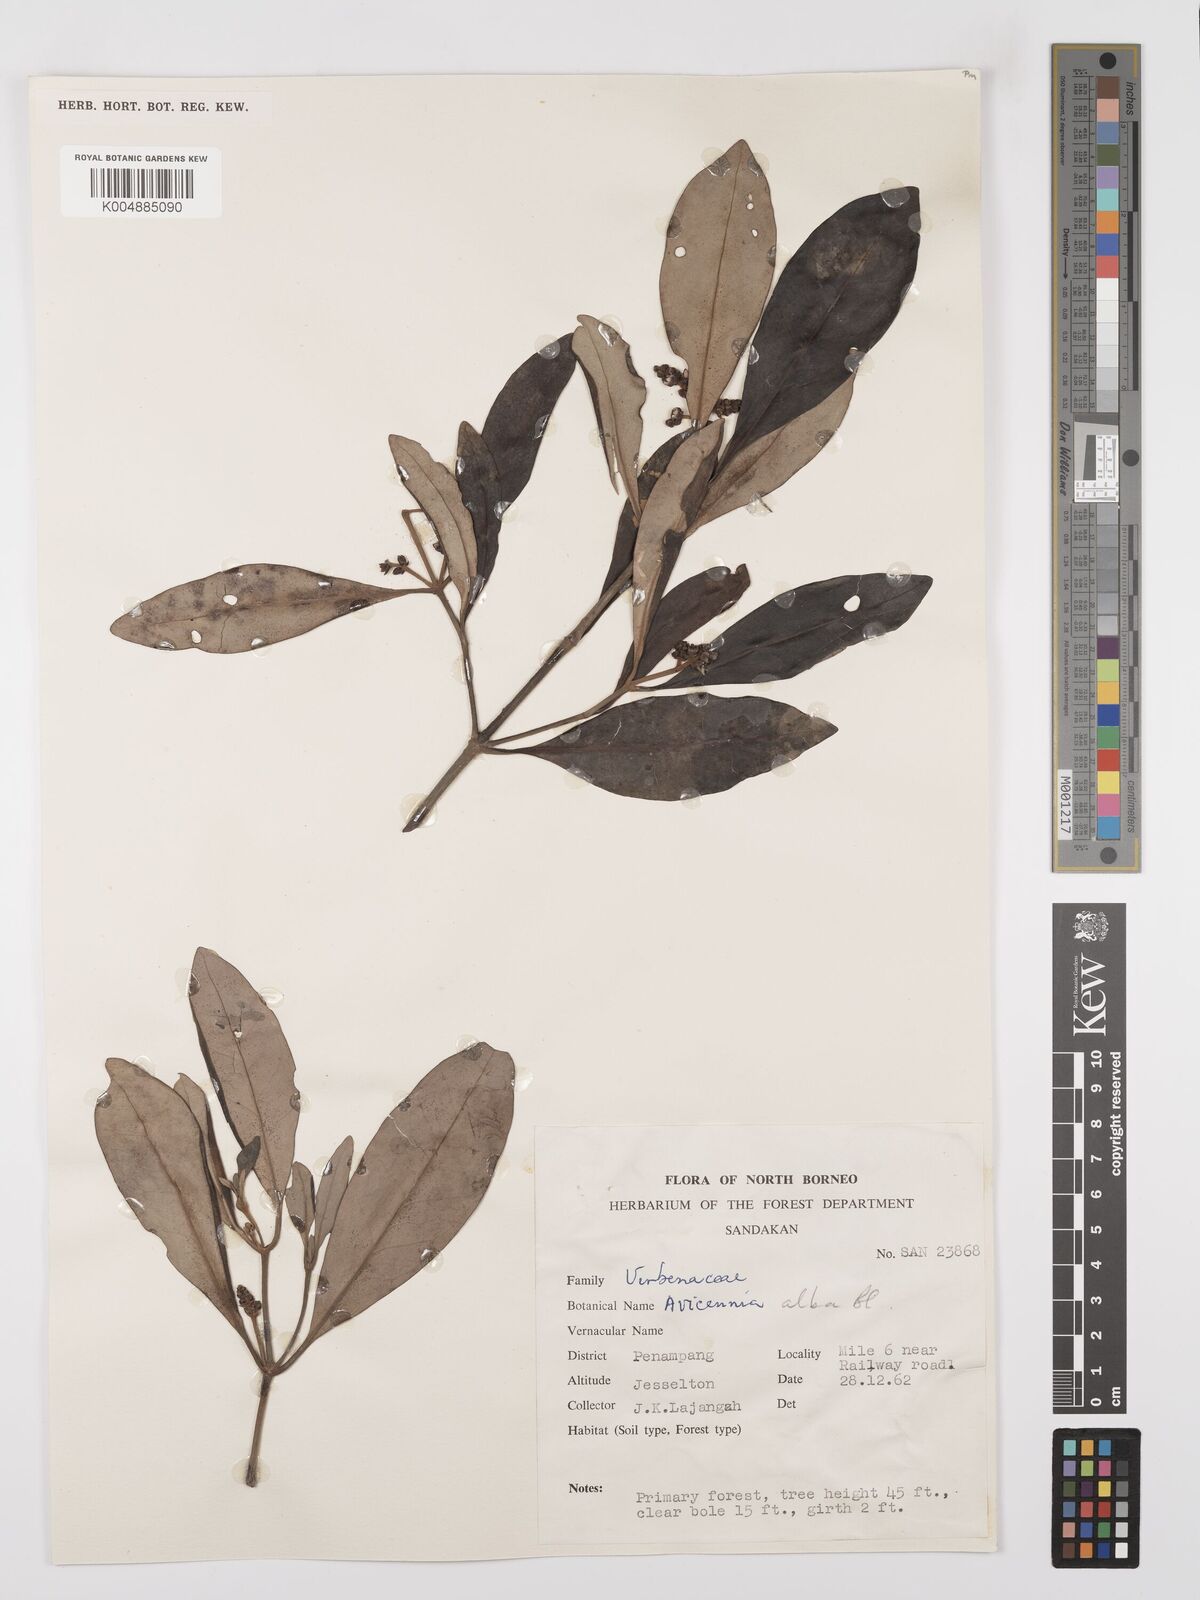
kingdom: Plantae
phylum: Tracheophyta
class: Magnoliopsida
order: Lamiales
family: Acanthaceae
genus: Avicennia
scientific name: Avicennia alba
